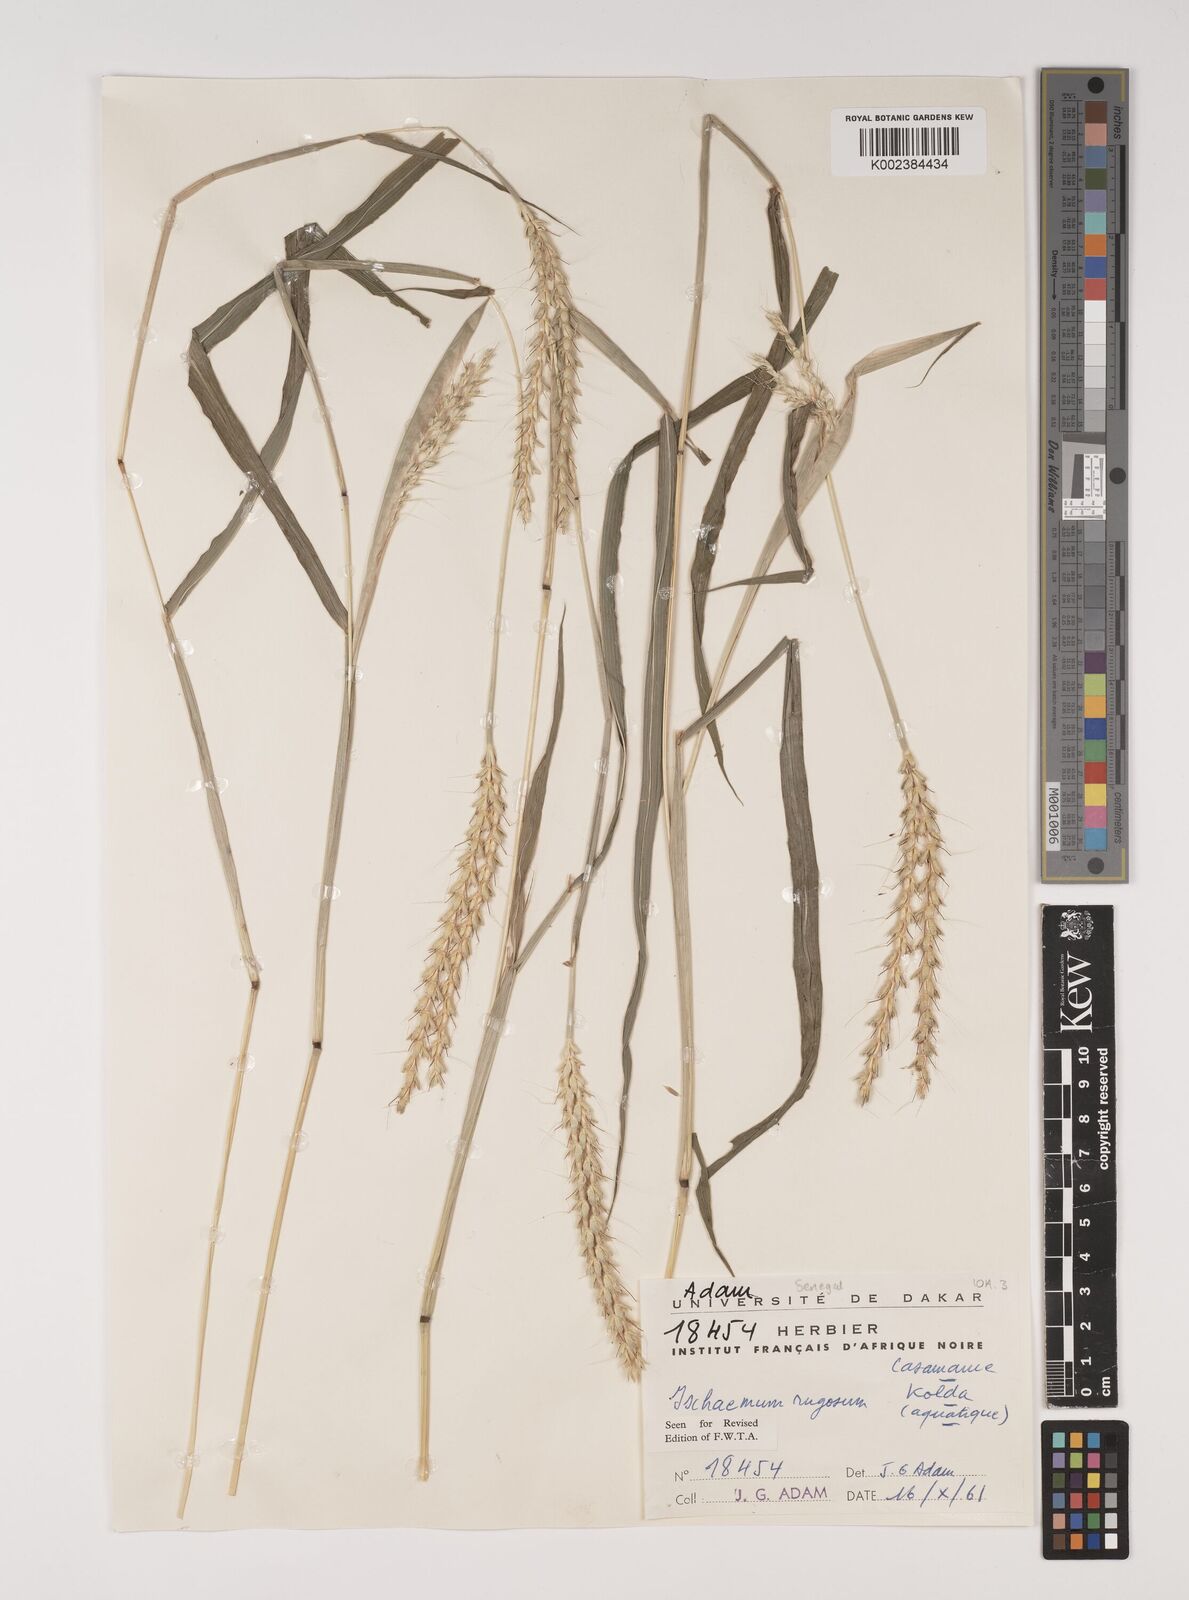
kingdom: Plantae
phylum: Tracheophyta
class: Liliopsida
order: Poales
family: Poaceae
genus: Ischaemum
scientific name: Ischaemum rugosum
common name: Saramatta grass
